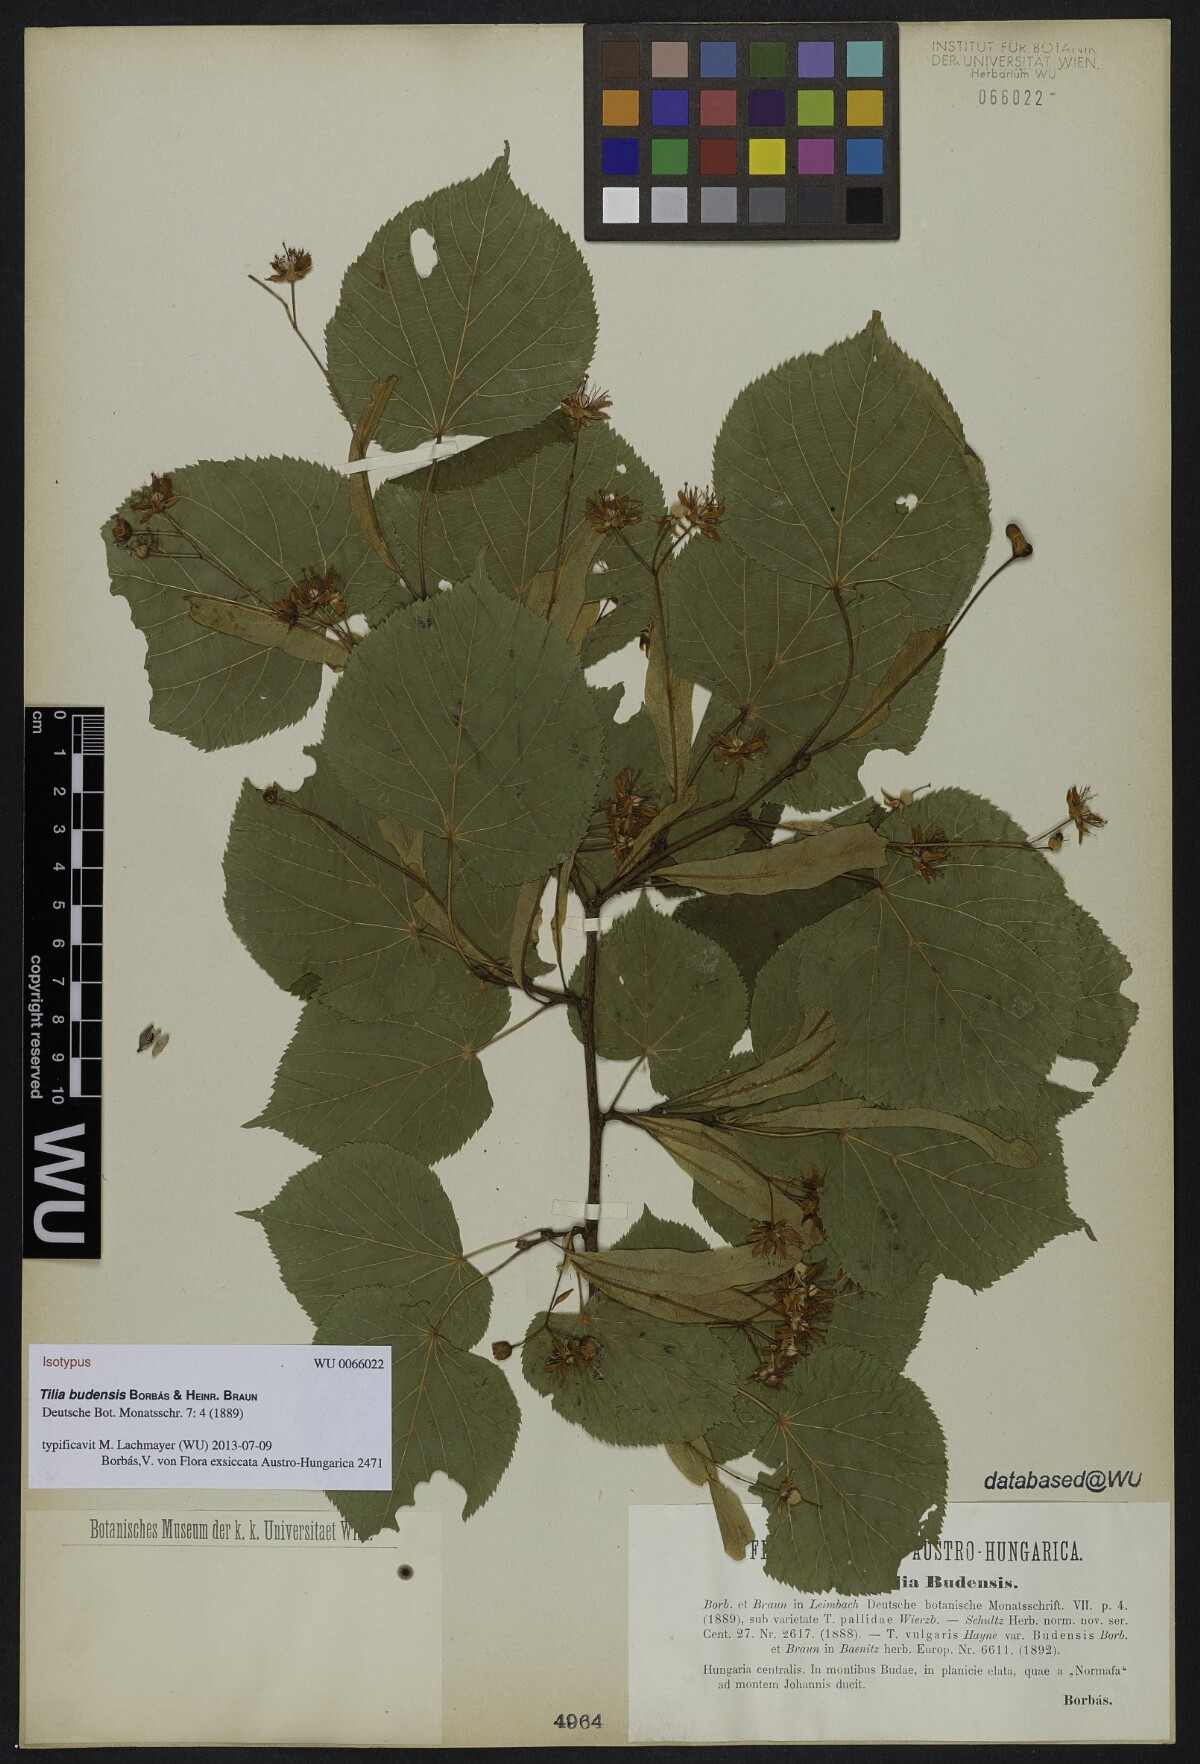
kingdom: Plantae
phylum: Tracheophyta
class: Magnoliopsida
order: Malvales
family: Malvaceae
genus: Tilia
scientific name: Tilia budensis
